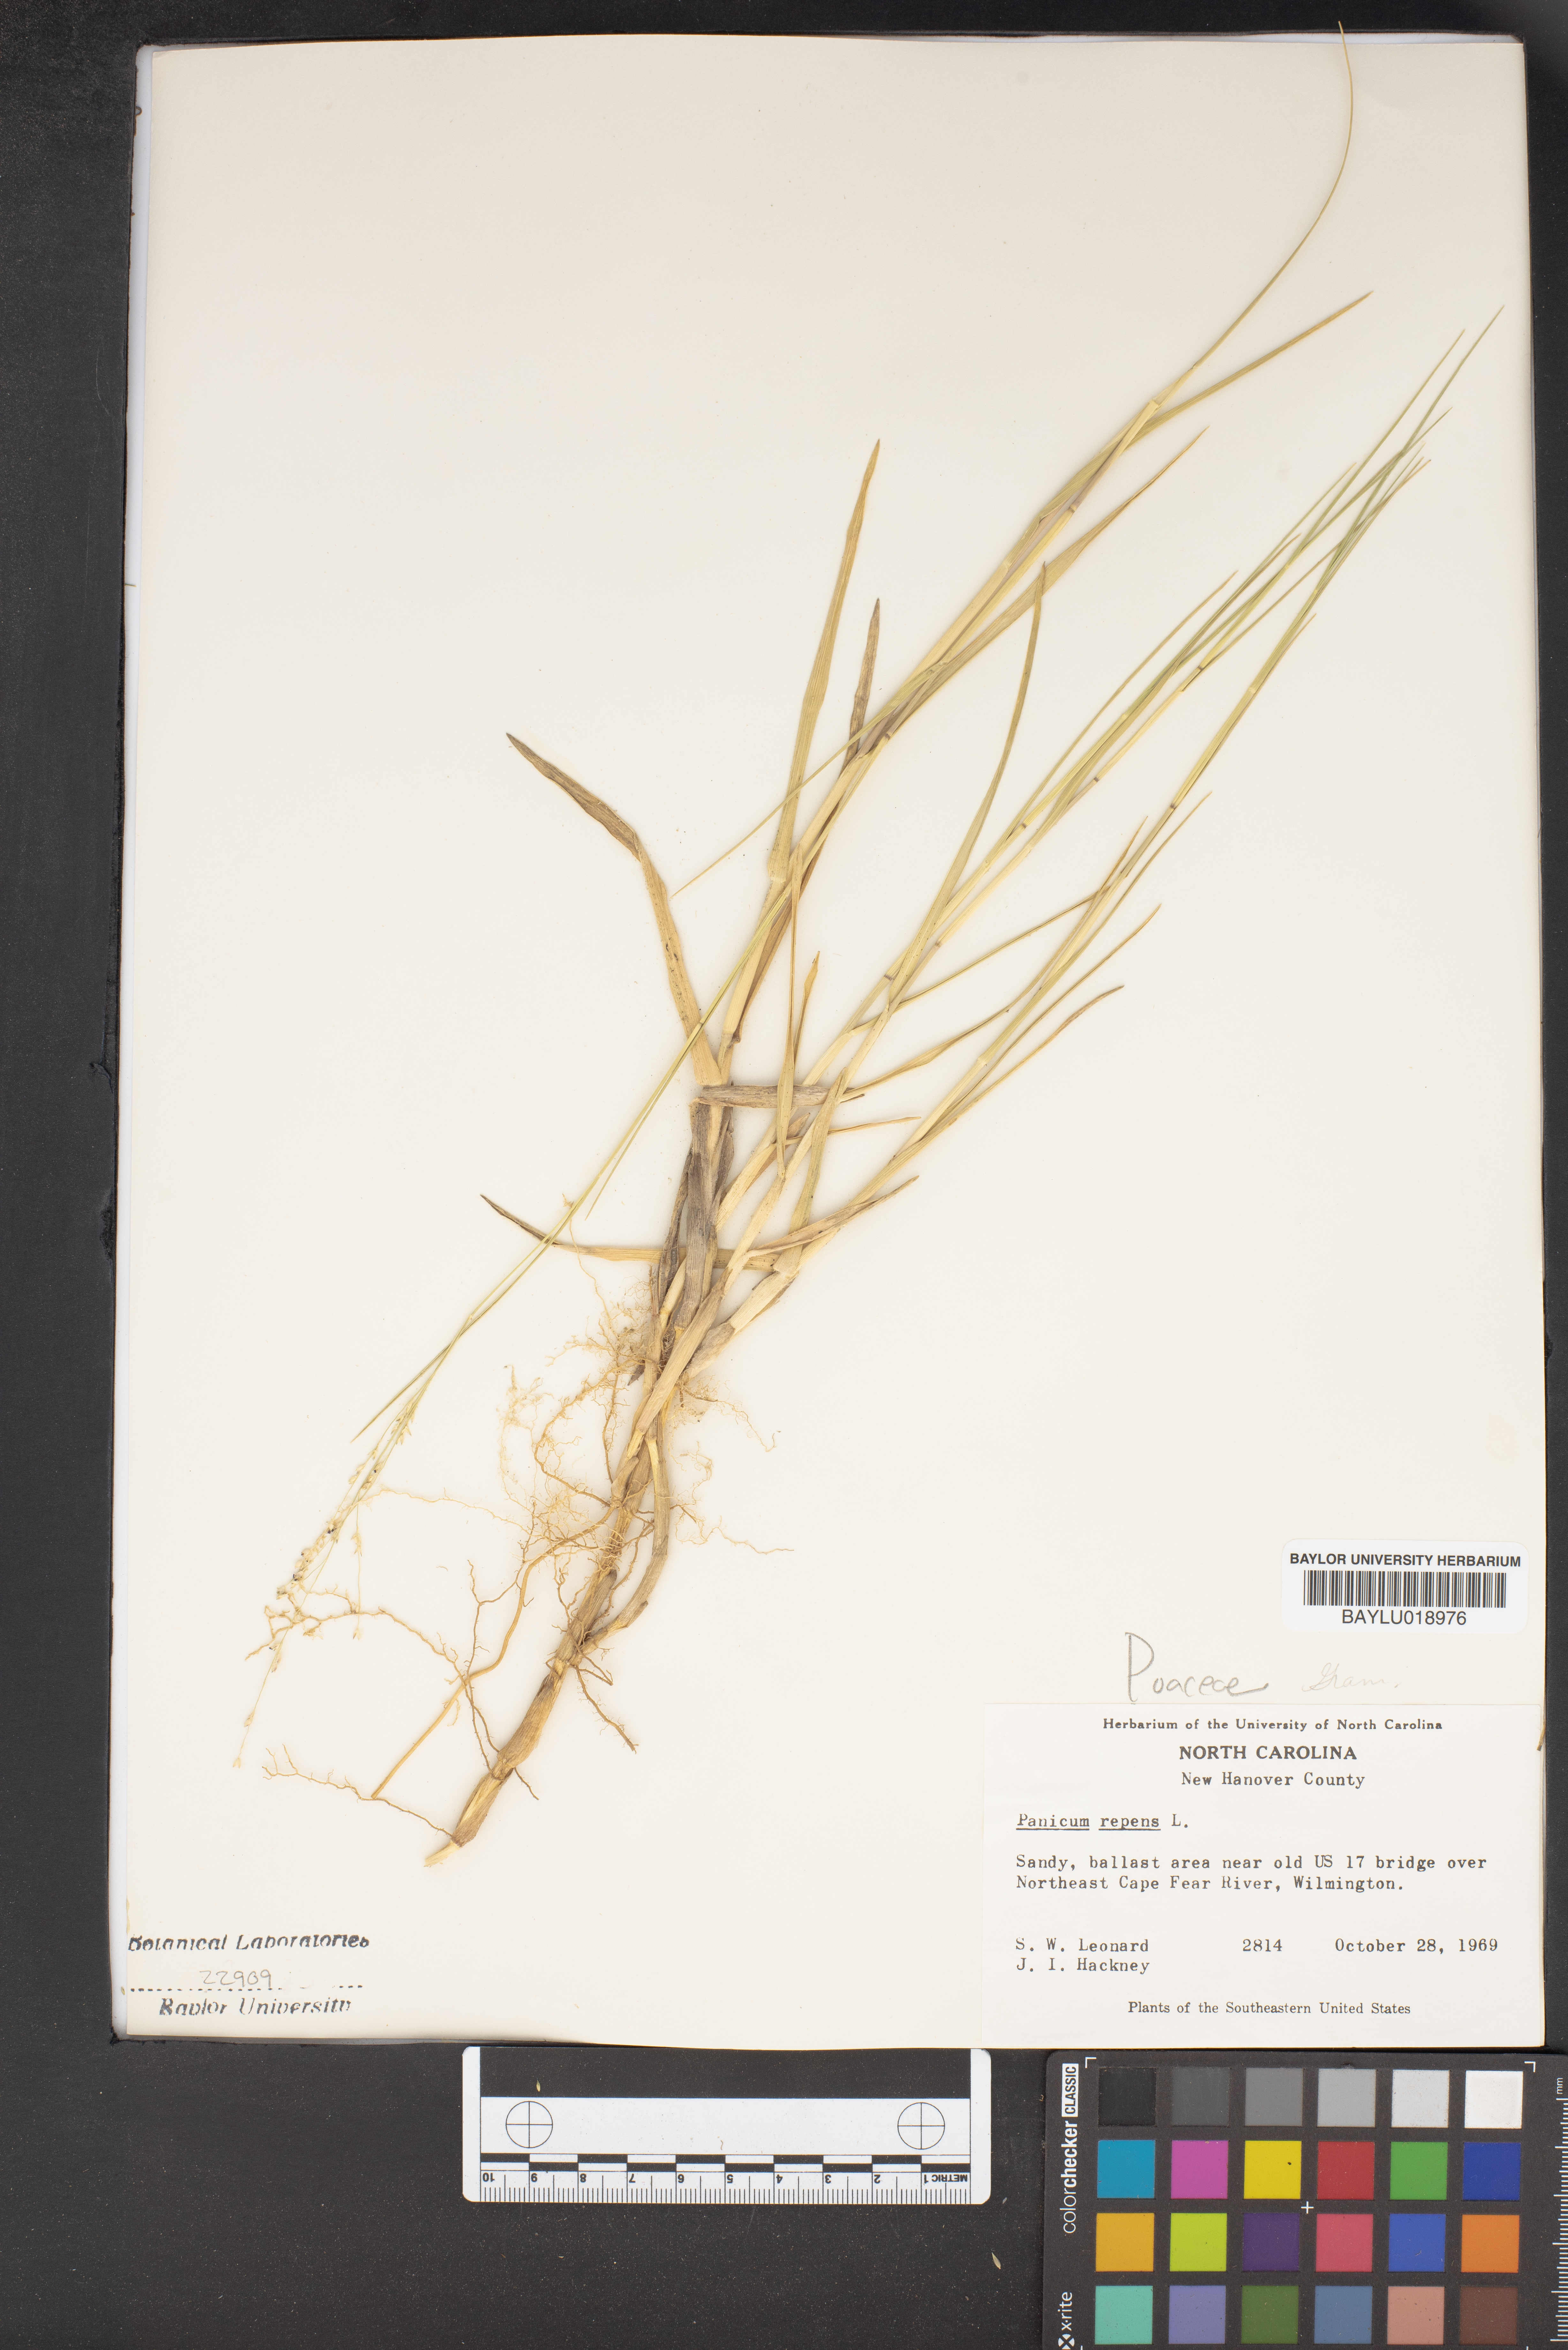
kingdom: Plantae
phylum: Tracheophyta
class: Liliopsida
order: Poales
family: Poaceae
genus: Panicum
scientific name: Panicum repens
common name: Torpedo grass
